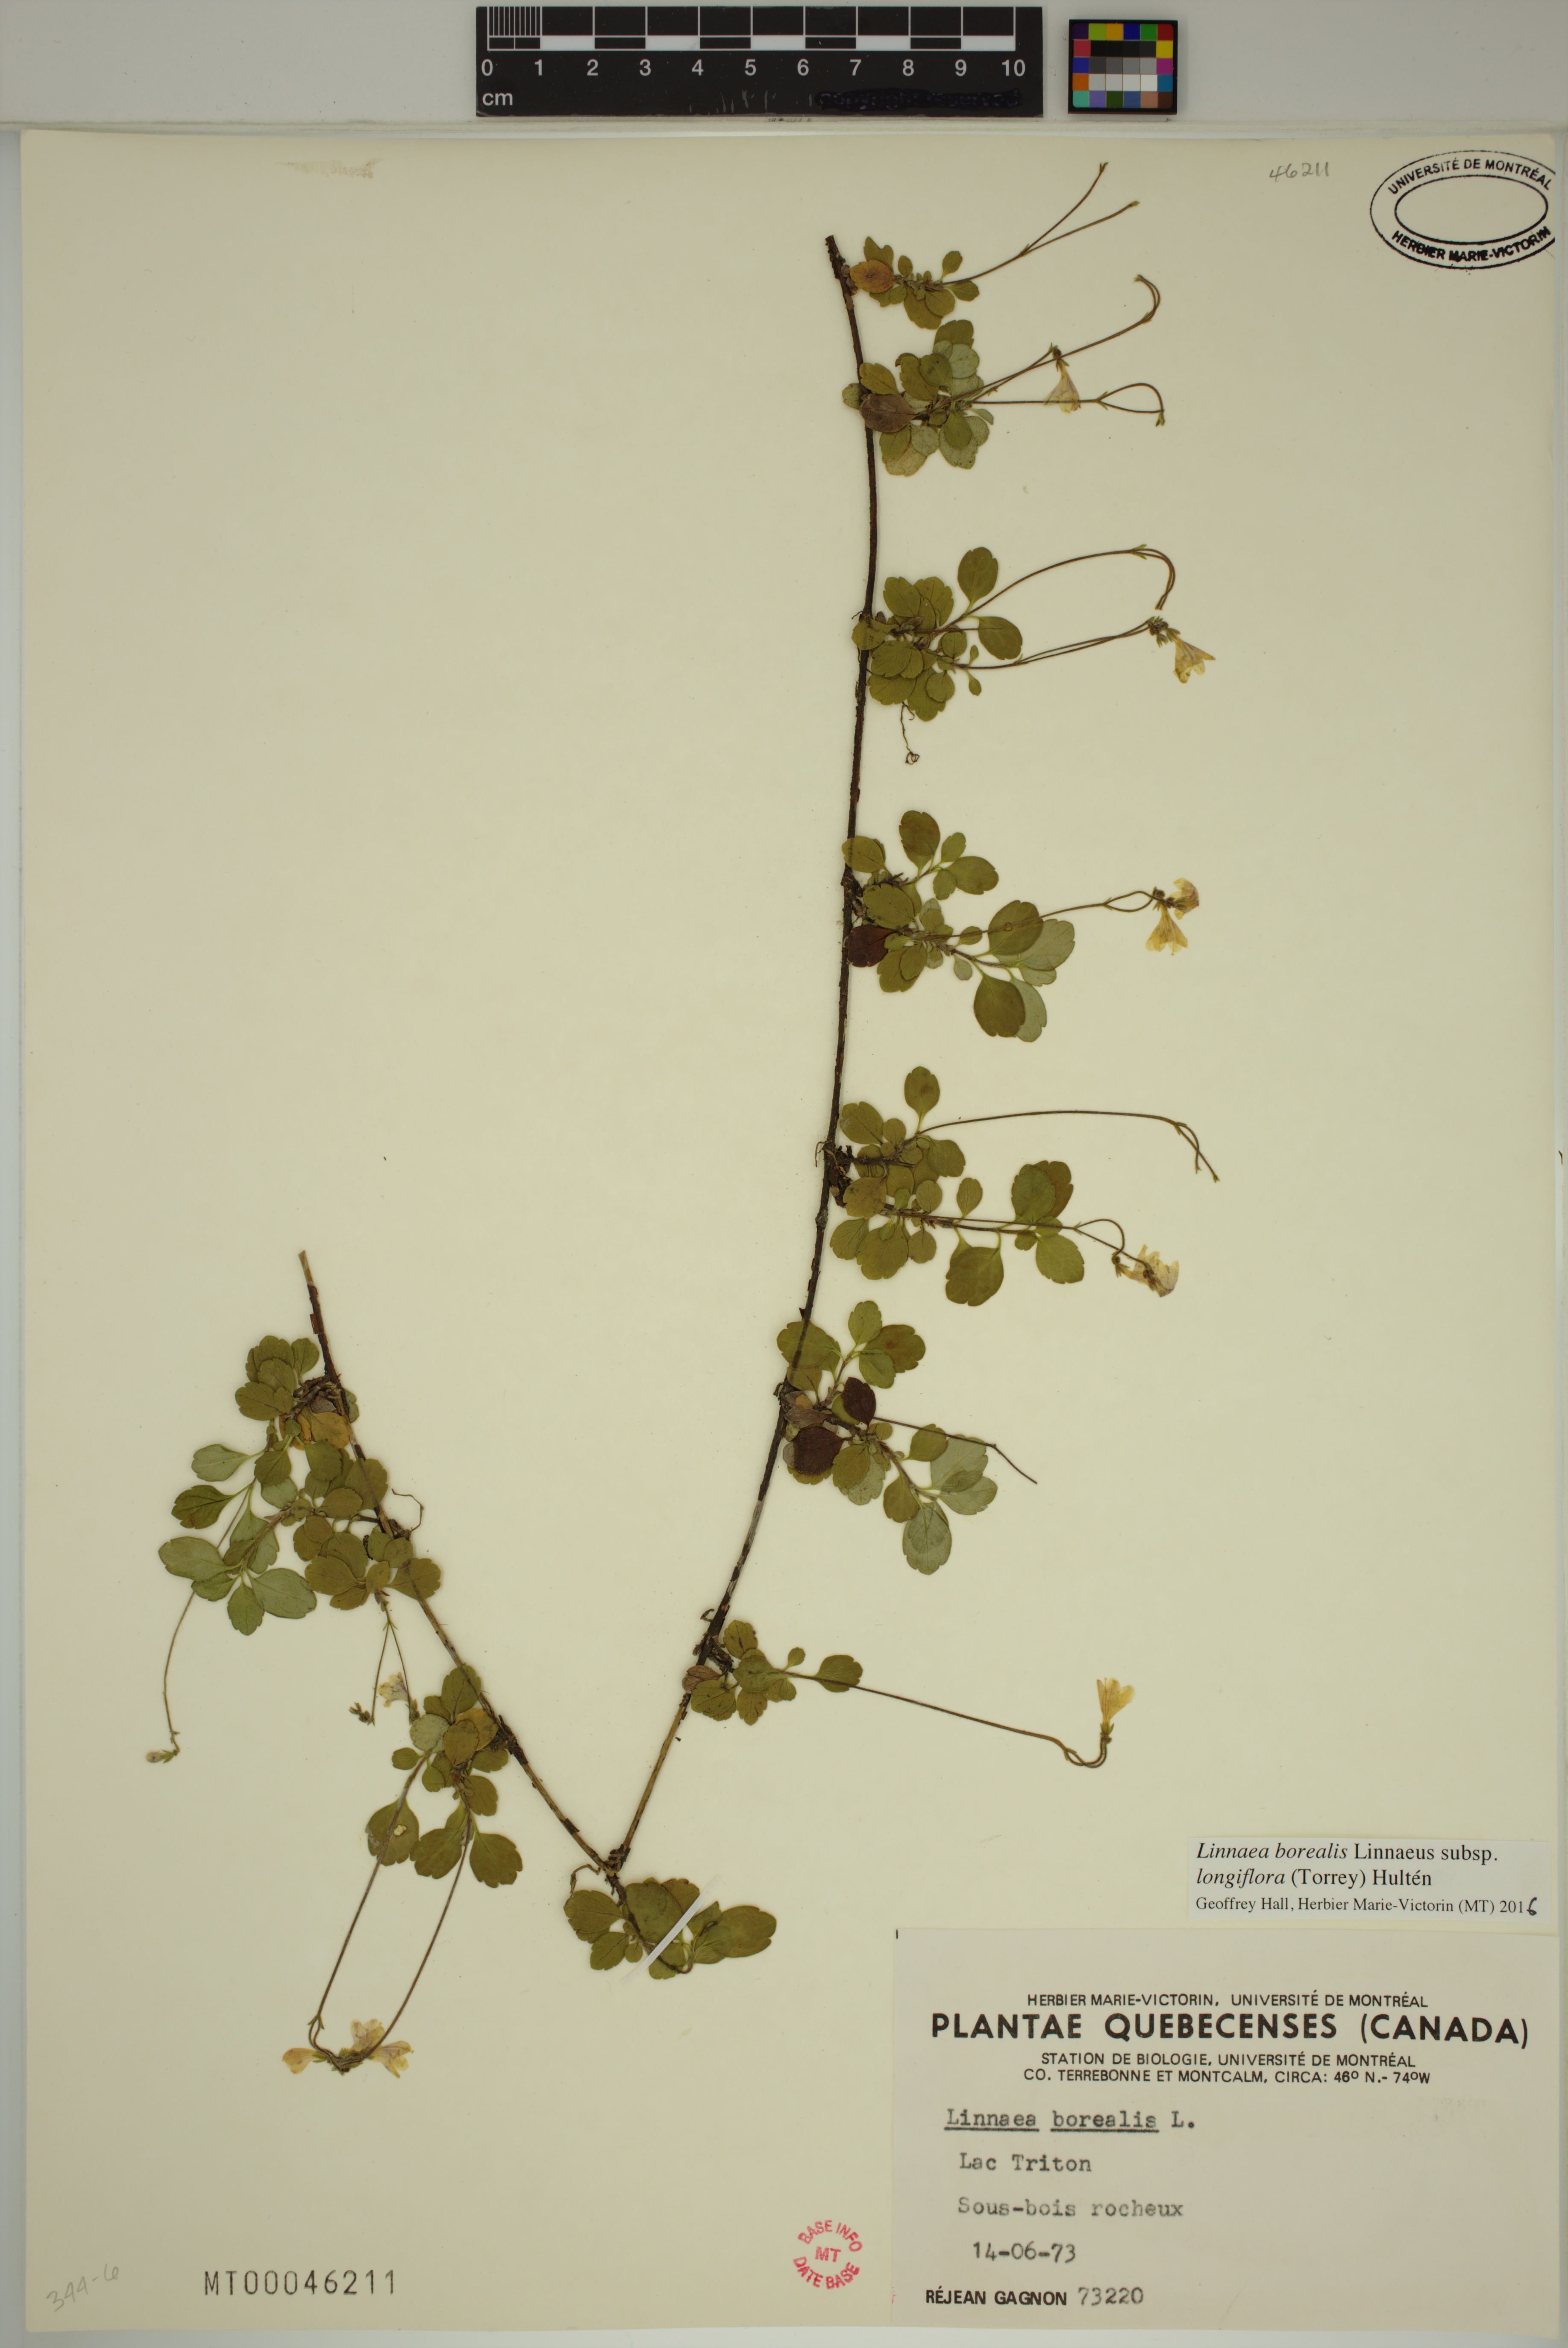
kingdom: Plantae
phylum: Tracheophyta
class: Magnoliopsida
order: Dipsacales
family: Caprifoliaceae
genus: Linnaea
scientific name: Linnaea borealis
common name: Twinflower
